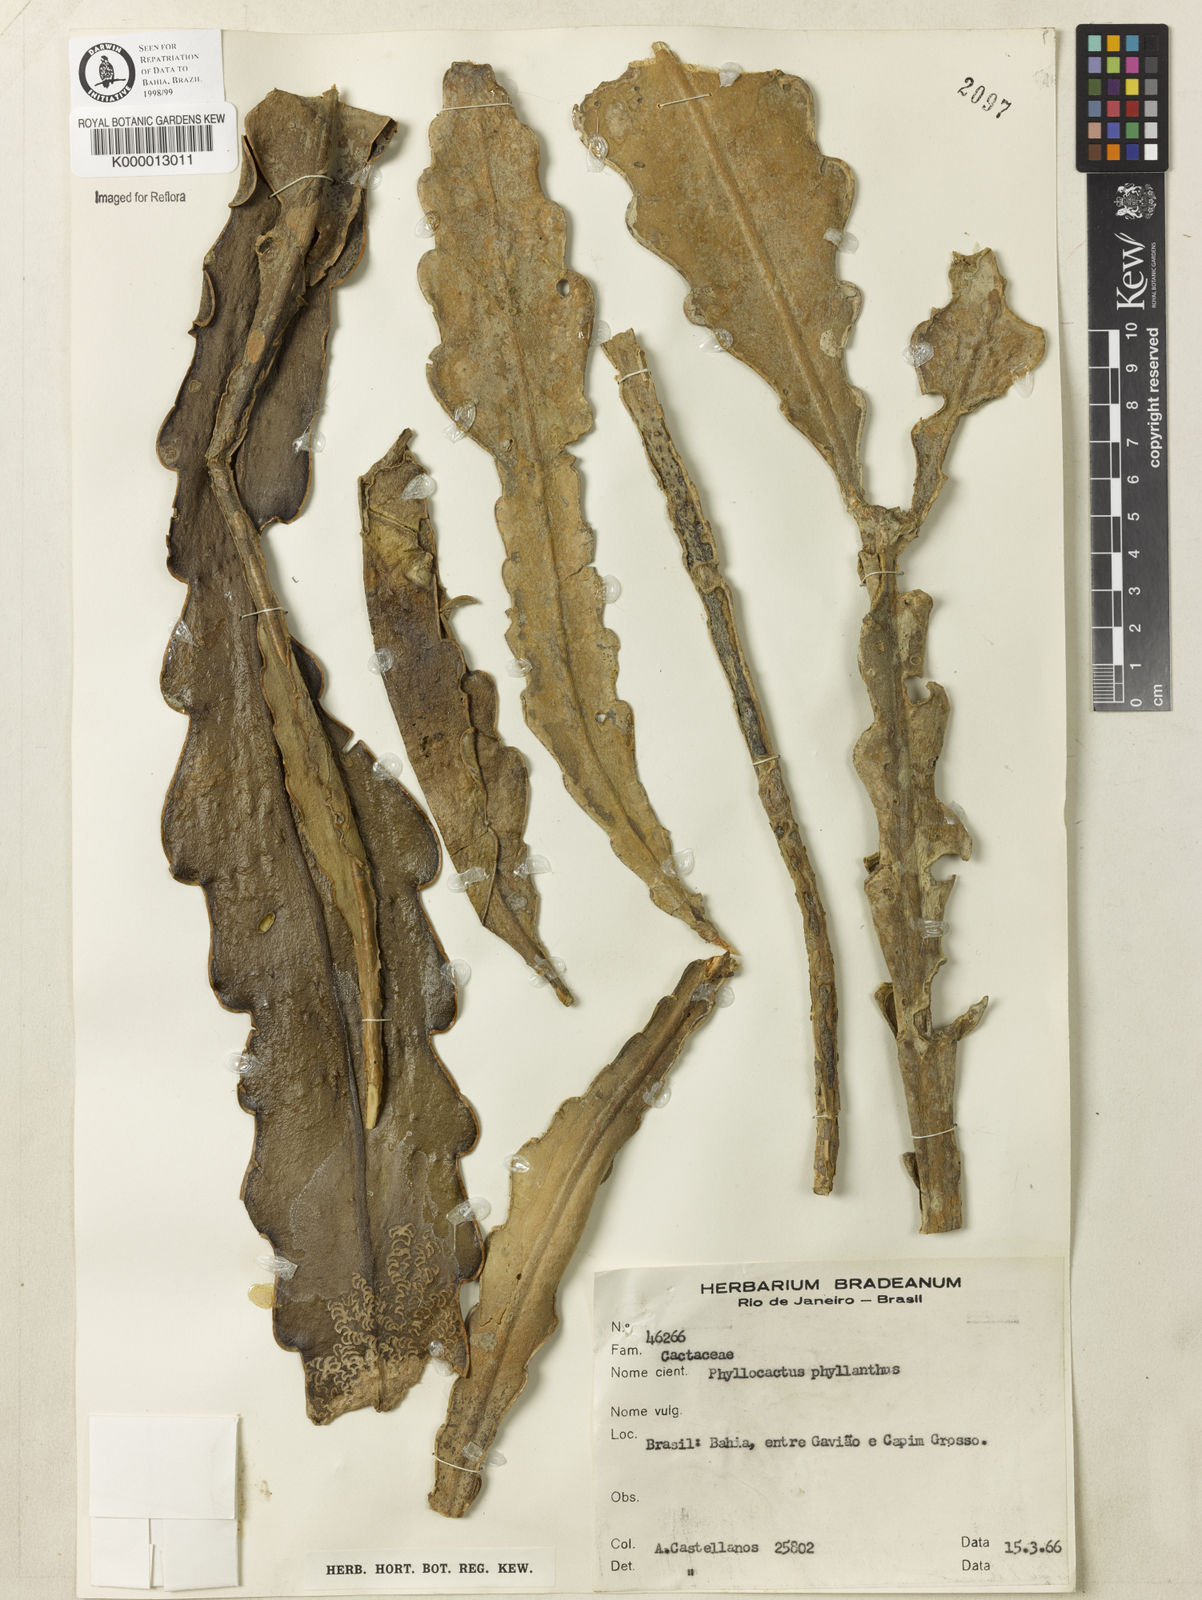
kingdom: Plantae
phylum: Tracheophyta
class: Magnoliopsida
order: Caryophyllales
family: Cactaceae
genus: Epiphyllum
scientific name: Epiphyllum phyllanthus
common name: Climbing cactus
